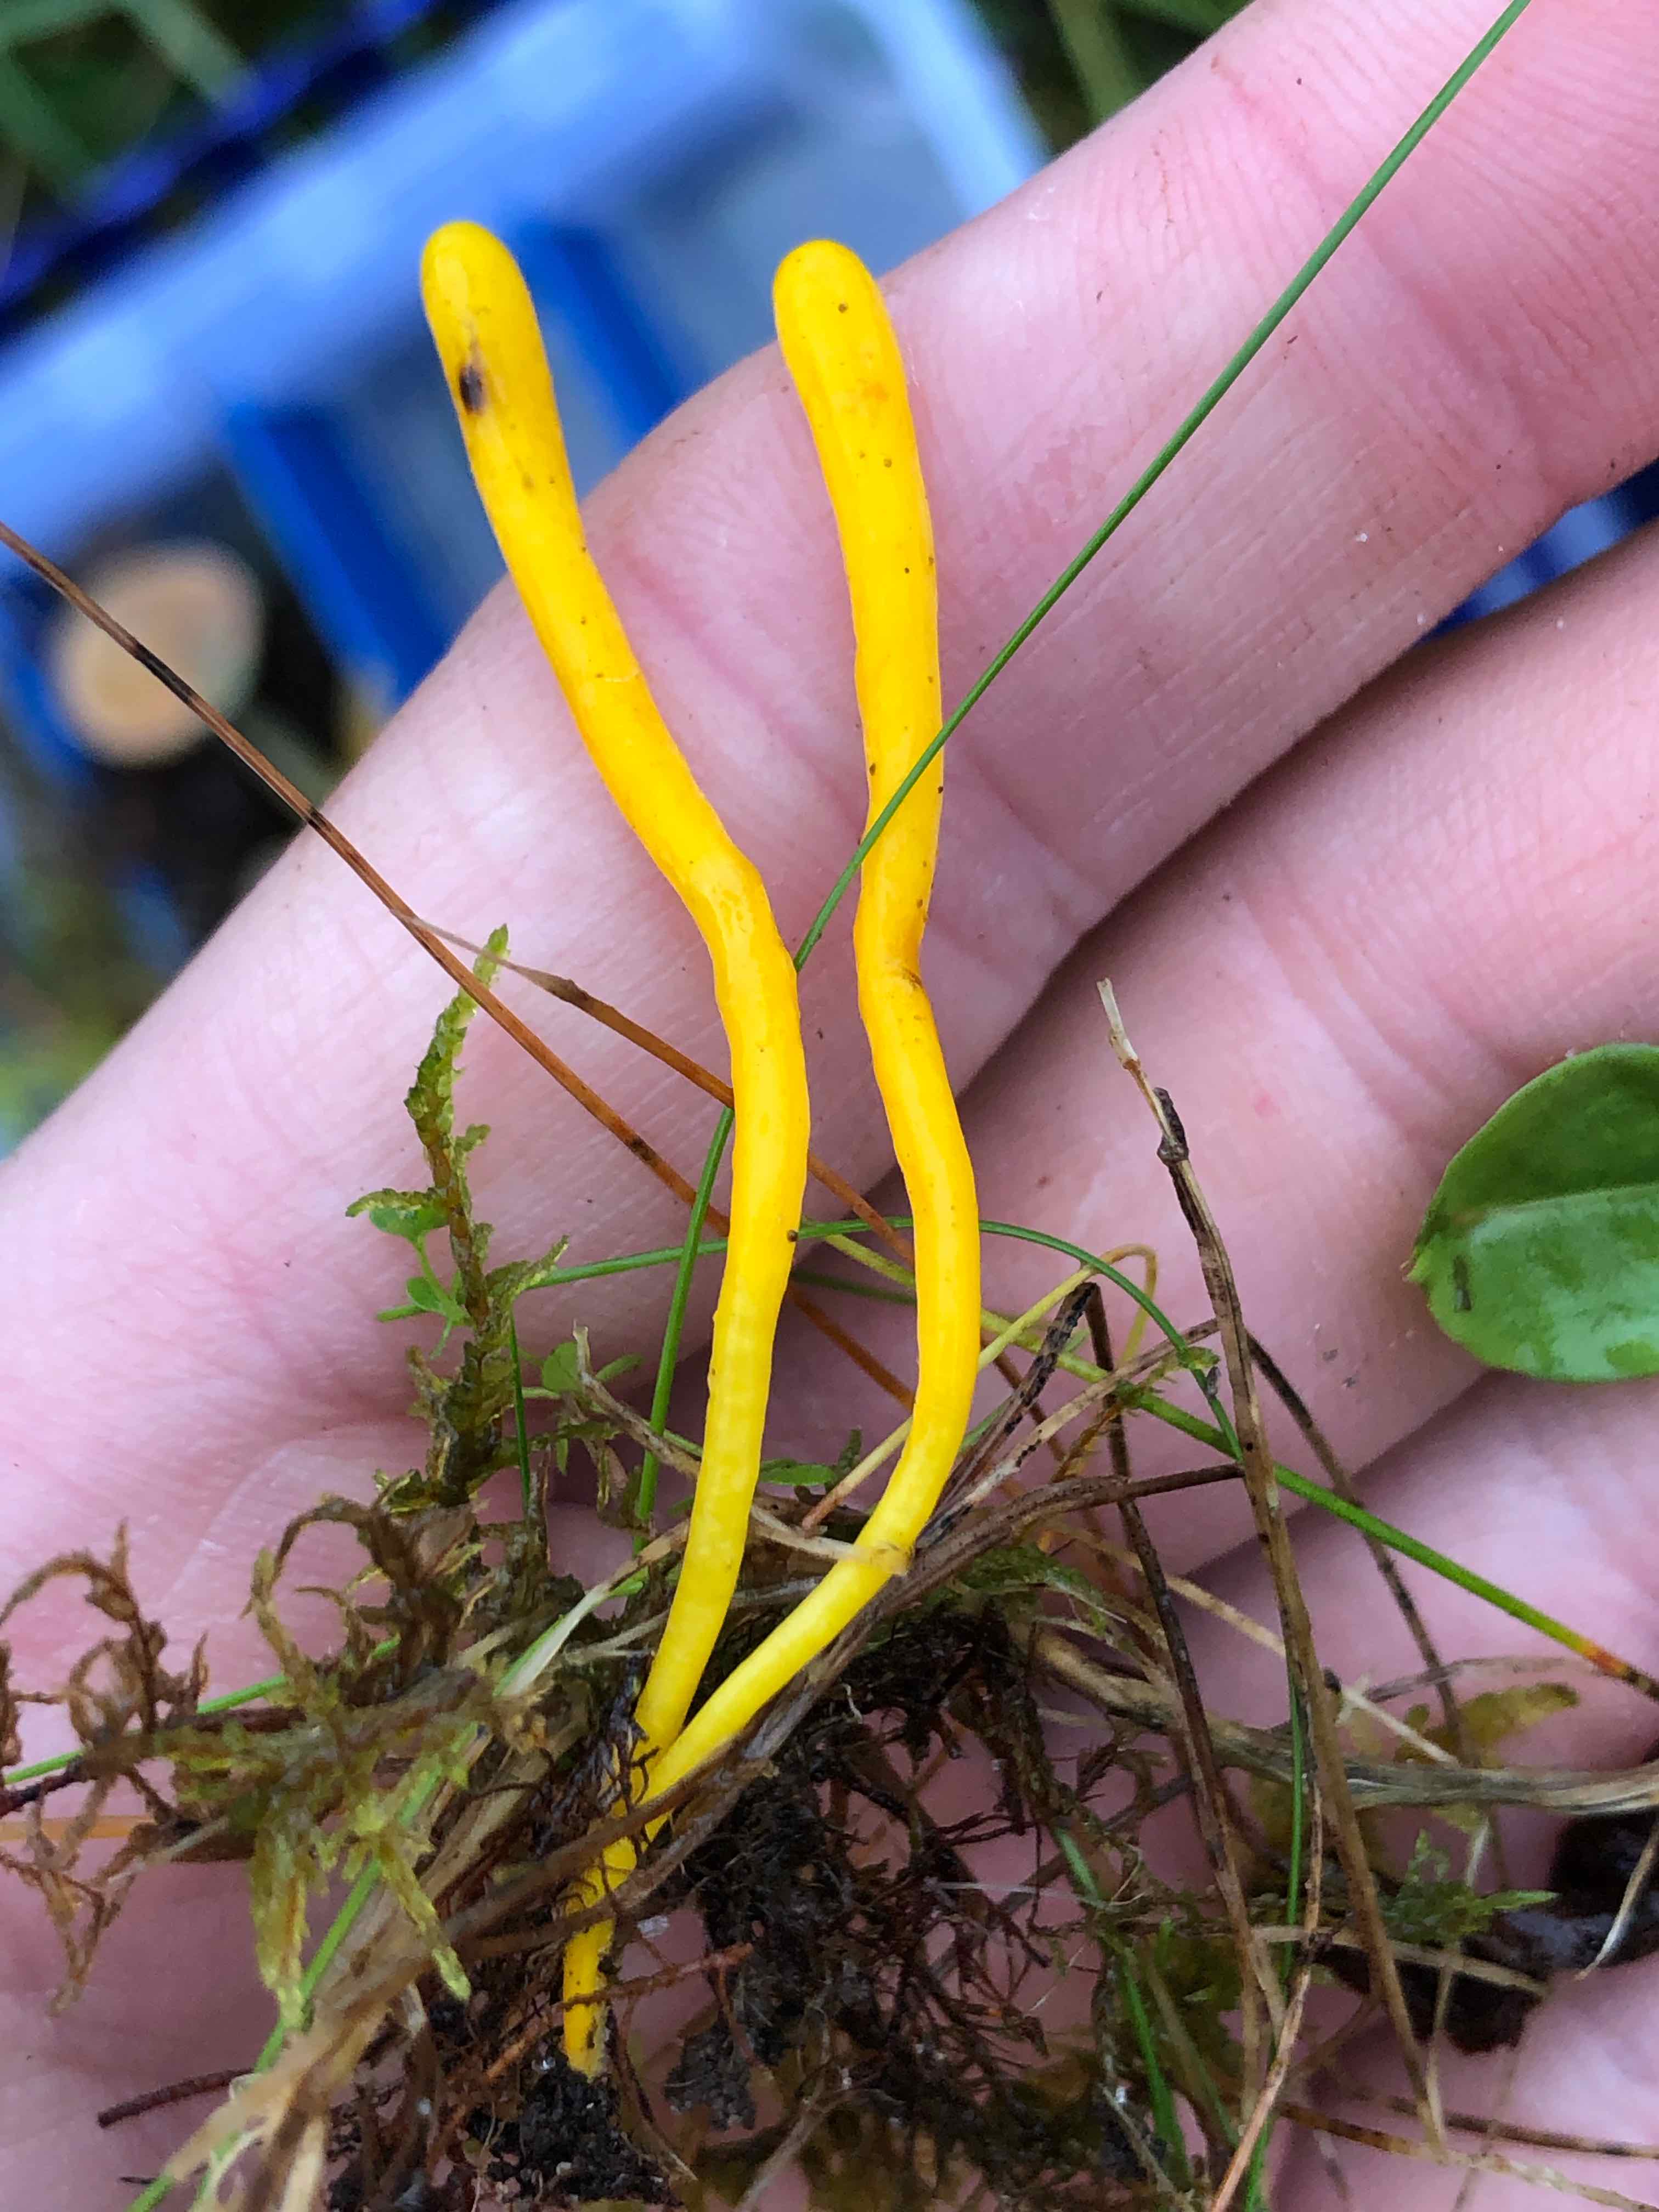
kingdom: Fungi
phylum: Basidiomycota
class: Agaricomycetes
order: Agaricales
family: Clavariaceae
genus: Clavulinopsis
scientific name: Clavulinopsis helvola
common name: orangegul køllesvamp
